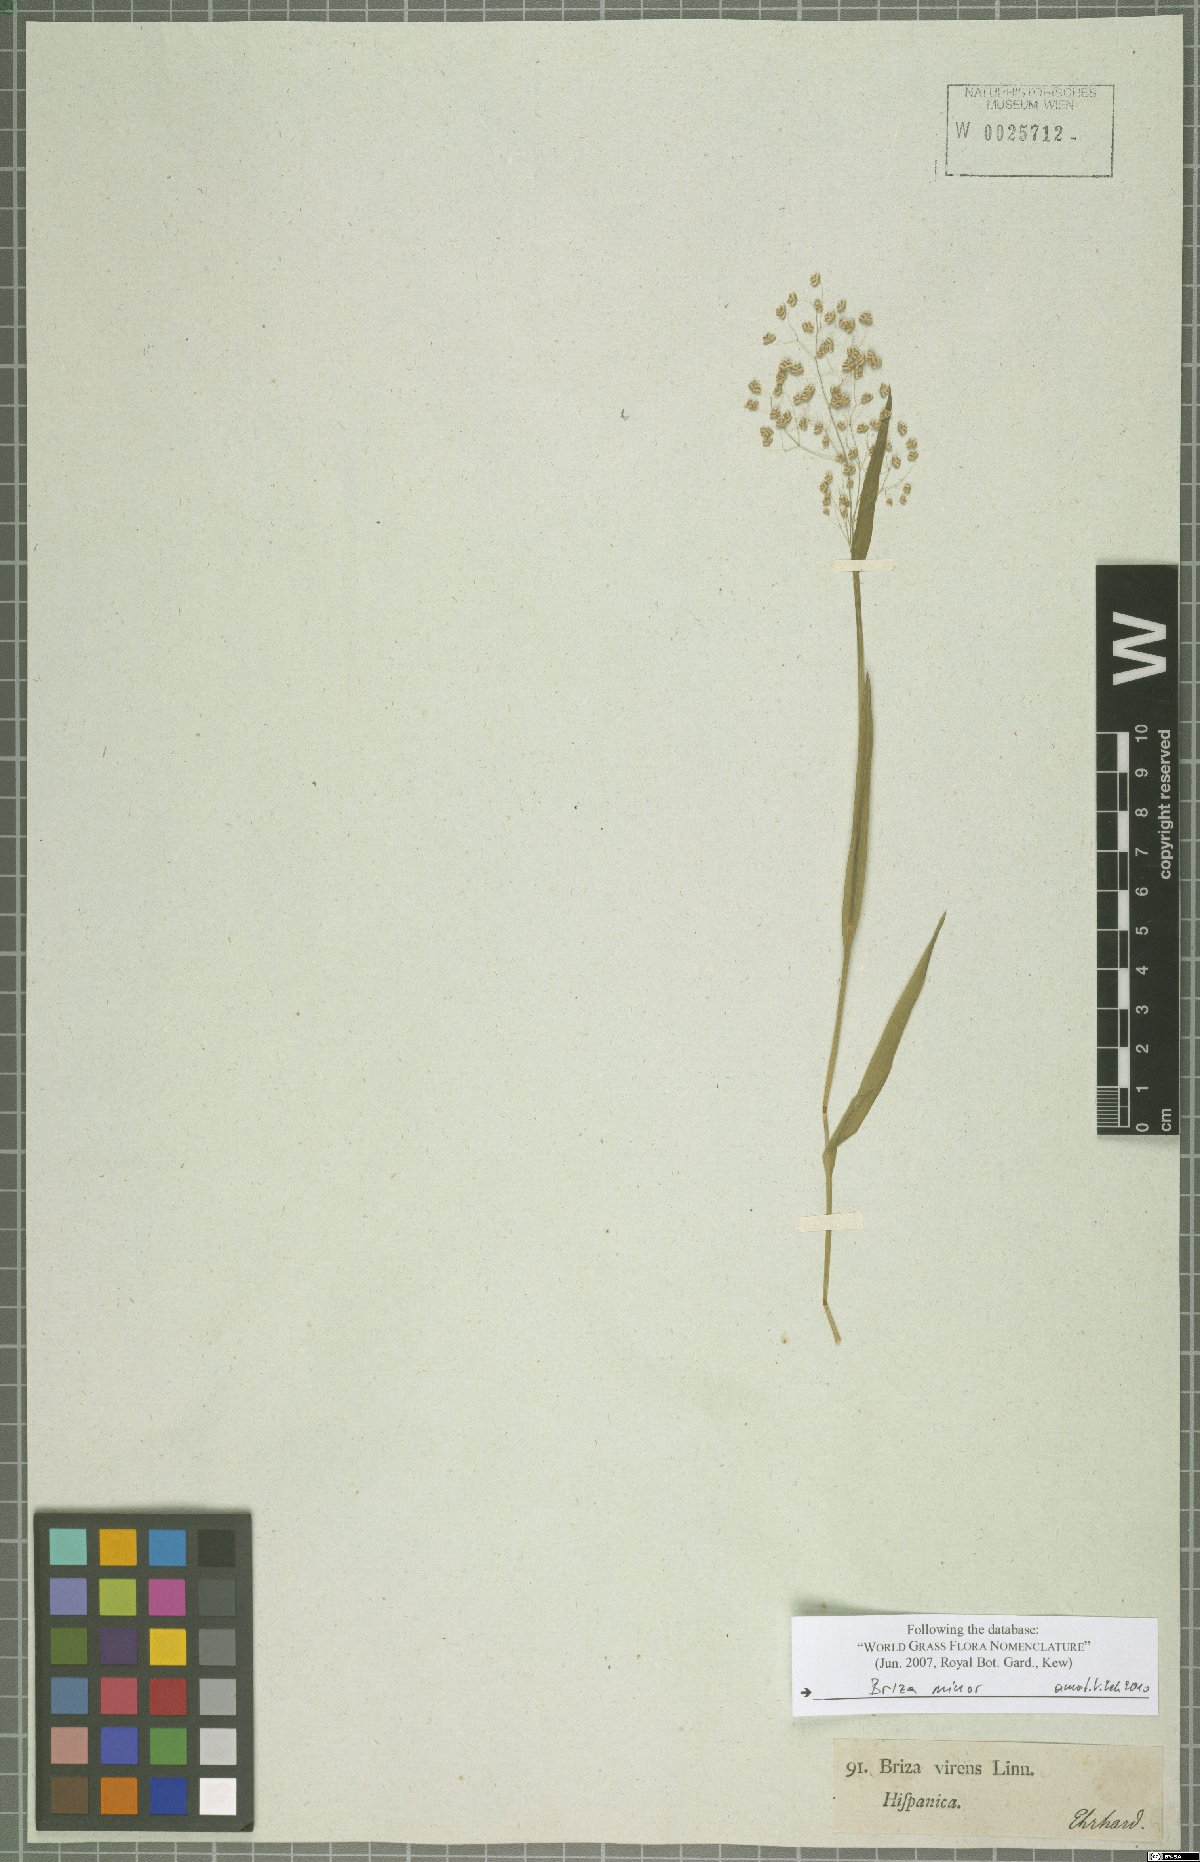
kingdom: Plantae
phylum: Tracheophyta
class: Liliopsida
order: Poales
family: Poaceae
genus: Briza
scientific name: Briza minor
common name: Lesser quaking-grass
